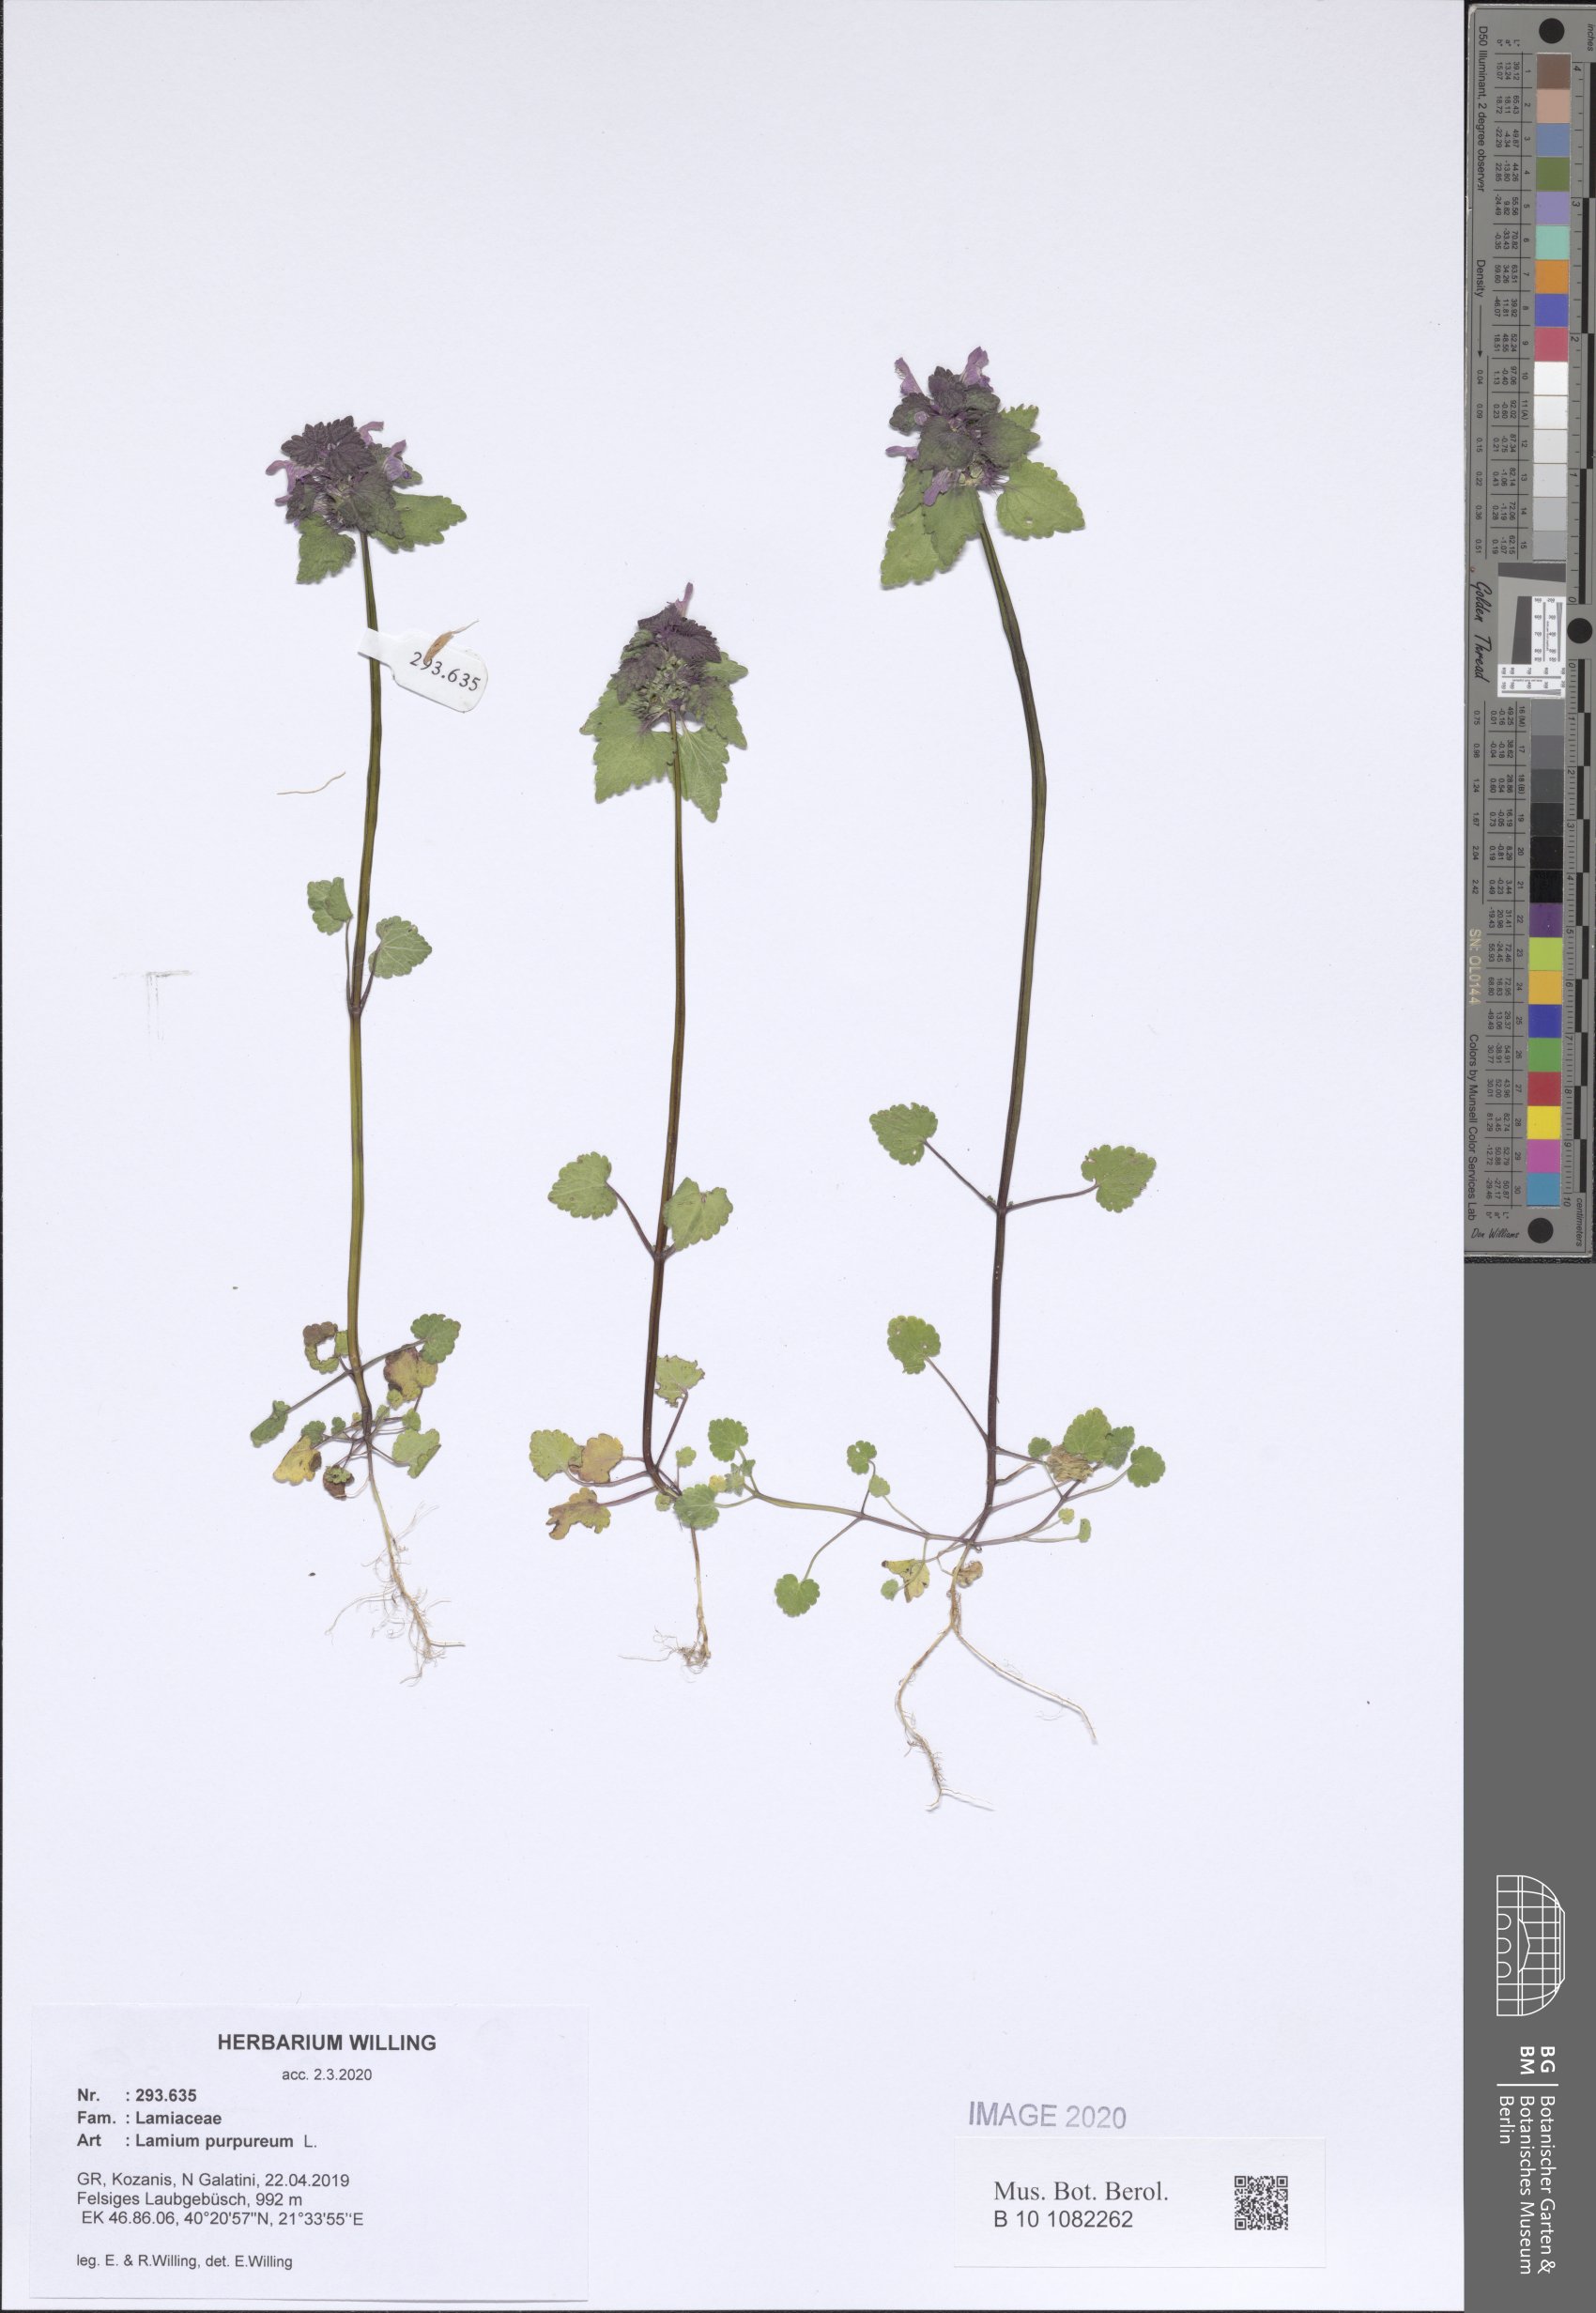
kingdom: Plantae
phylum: Tracheophyta
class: Magnoliopsida
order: Lamiales
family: Lamiaceae
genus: Lamium
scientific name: Lamium purpureum
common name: Red dead-nettle
